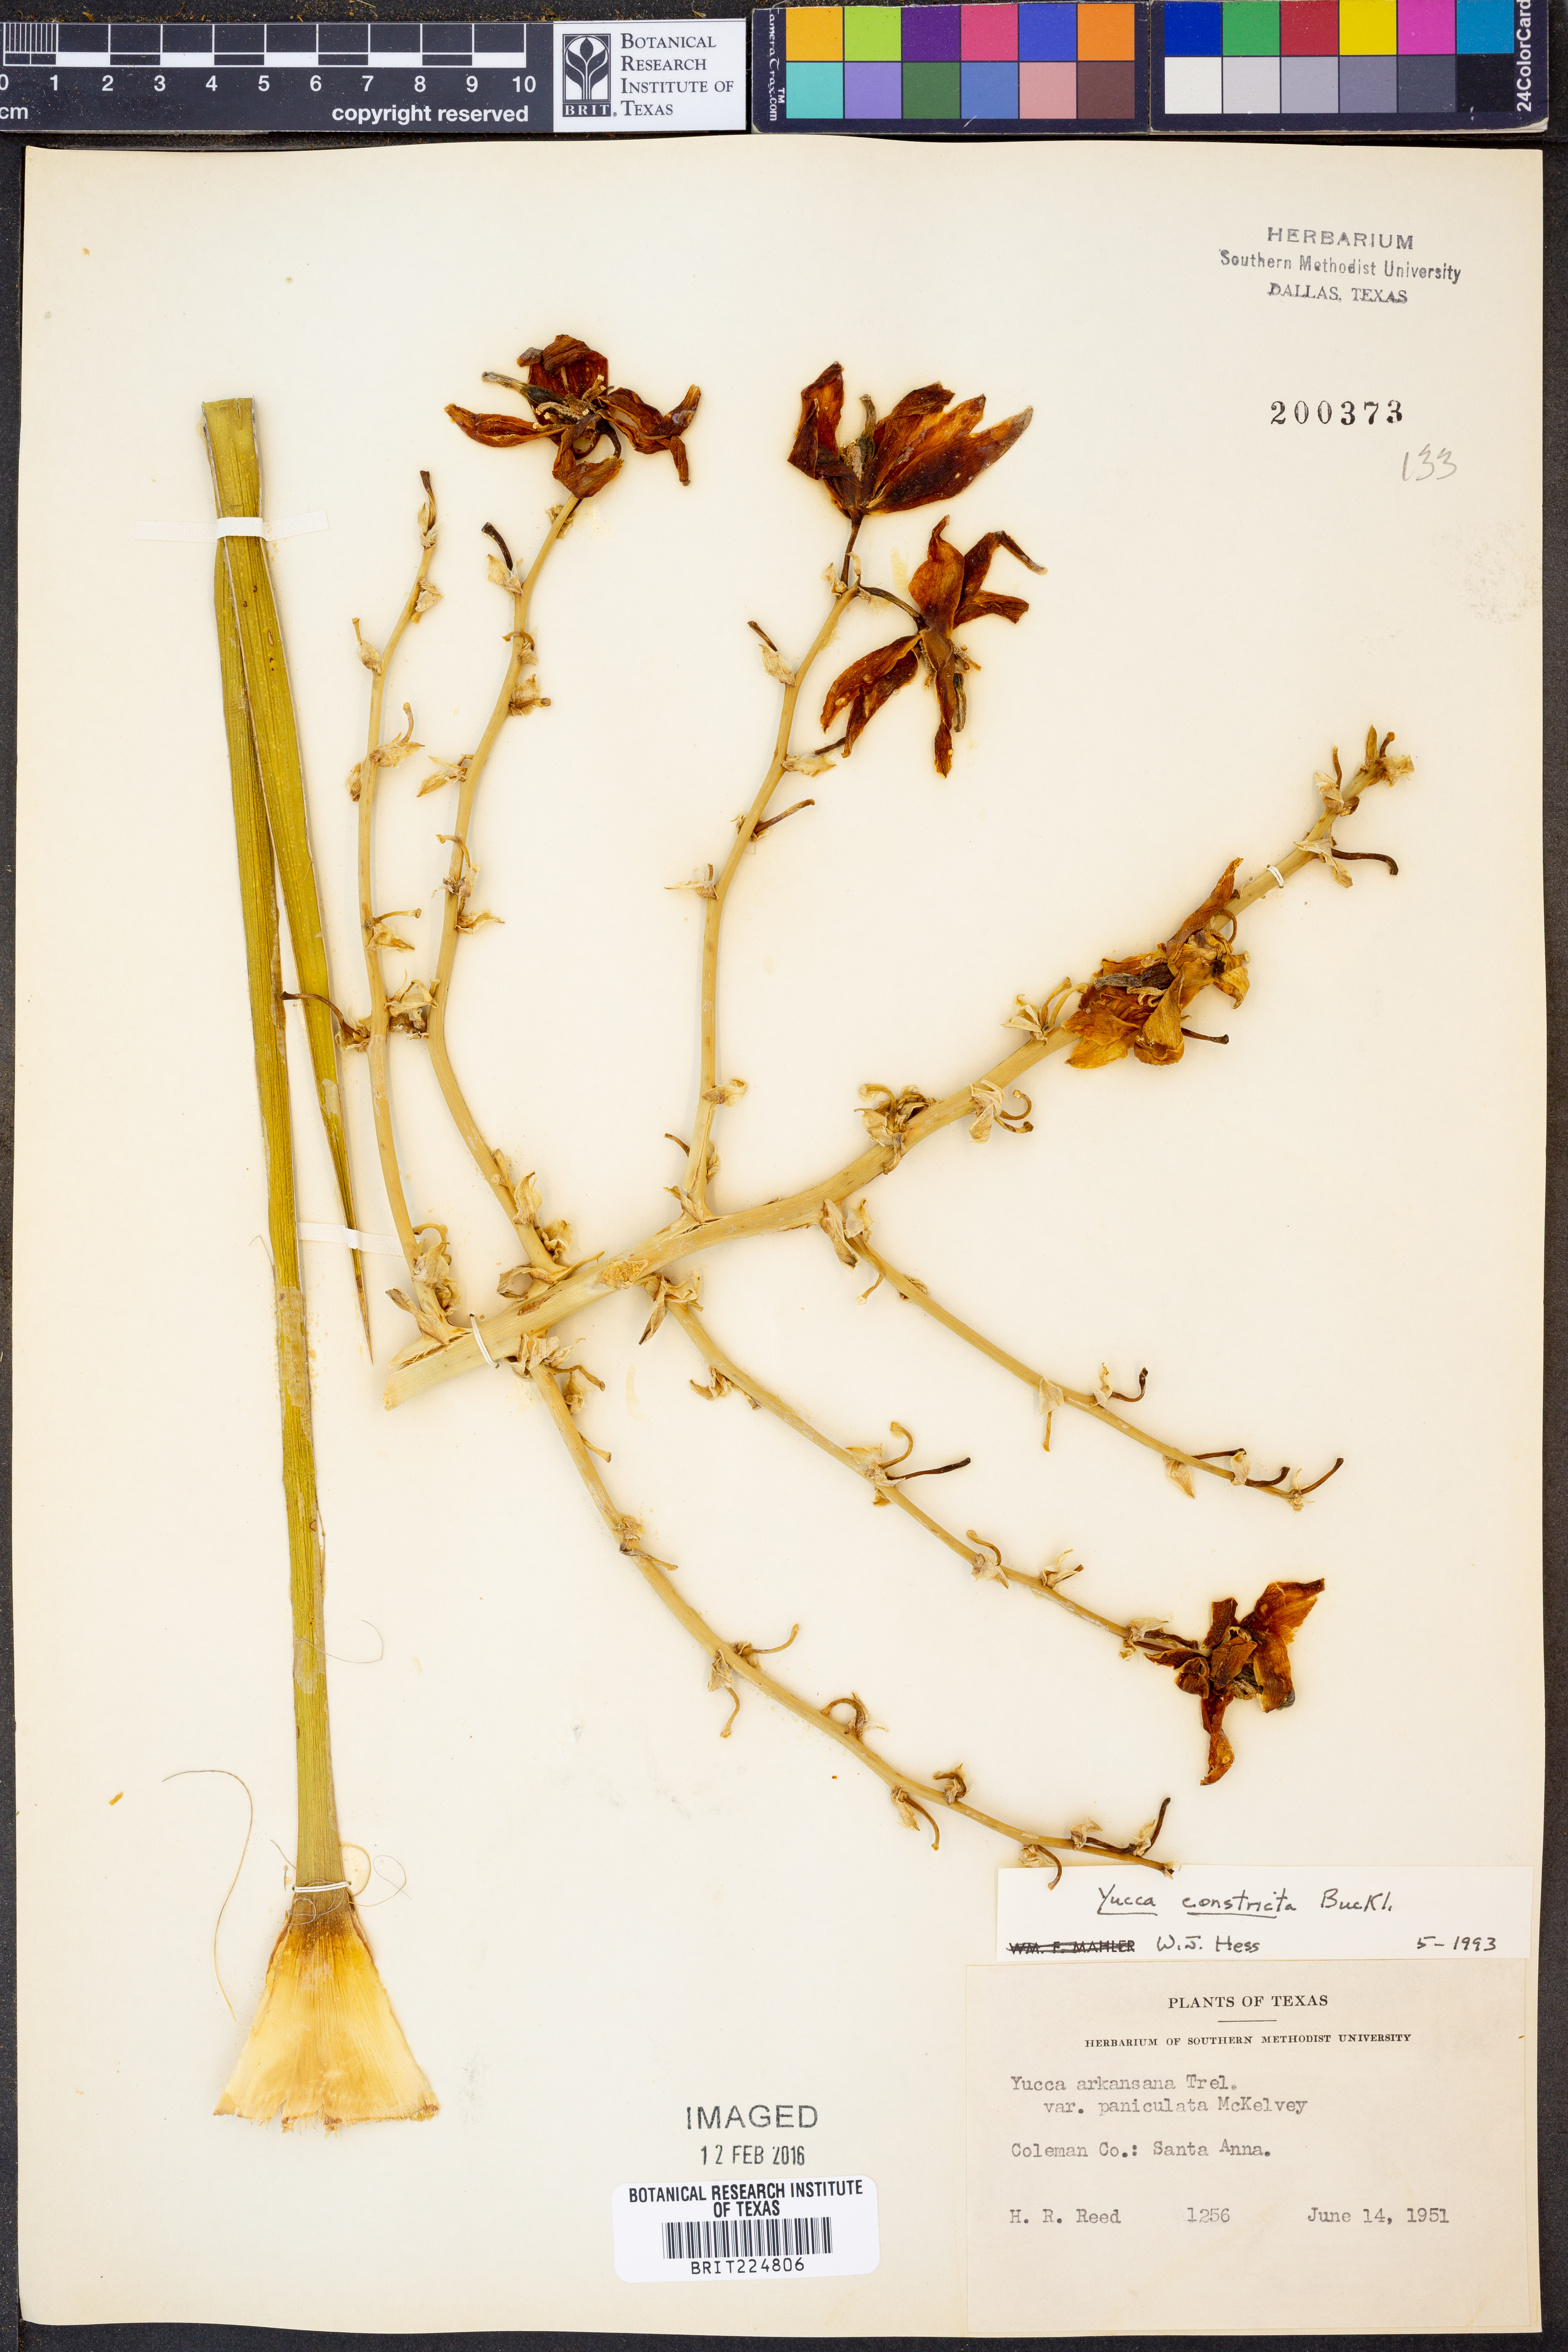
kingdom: Plantae
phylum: Tracheophyta
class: Liliopsida
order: Asparagales
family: Asparagaceae
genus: Yucca
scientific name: Yucca constricta
